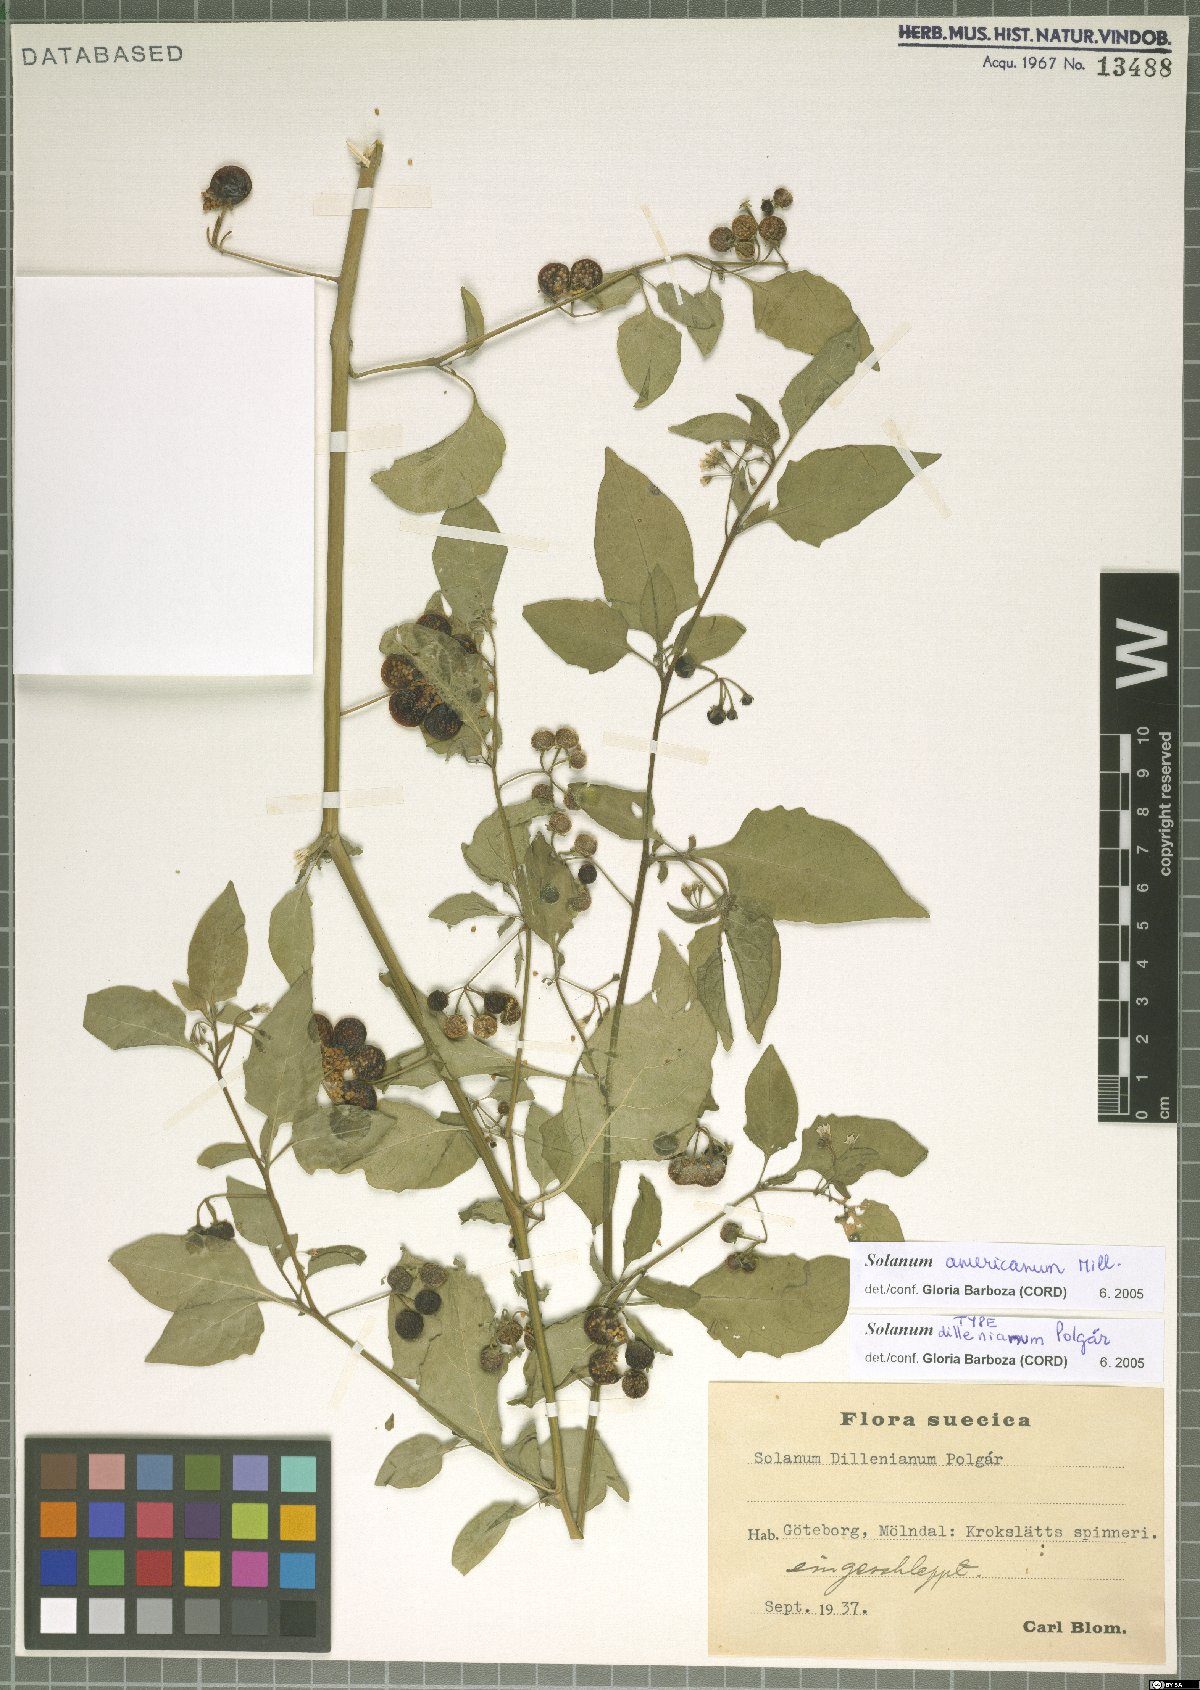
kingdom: Plantae
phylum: Tracheophyta
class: Magnoliopsida
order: Solanales
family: Solanaceae
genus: Solanum
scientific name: Solanum emulans
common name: Eastern black nightshade
